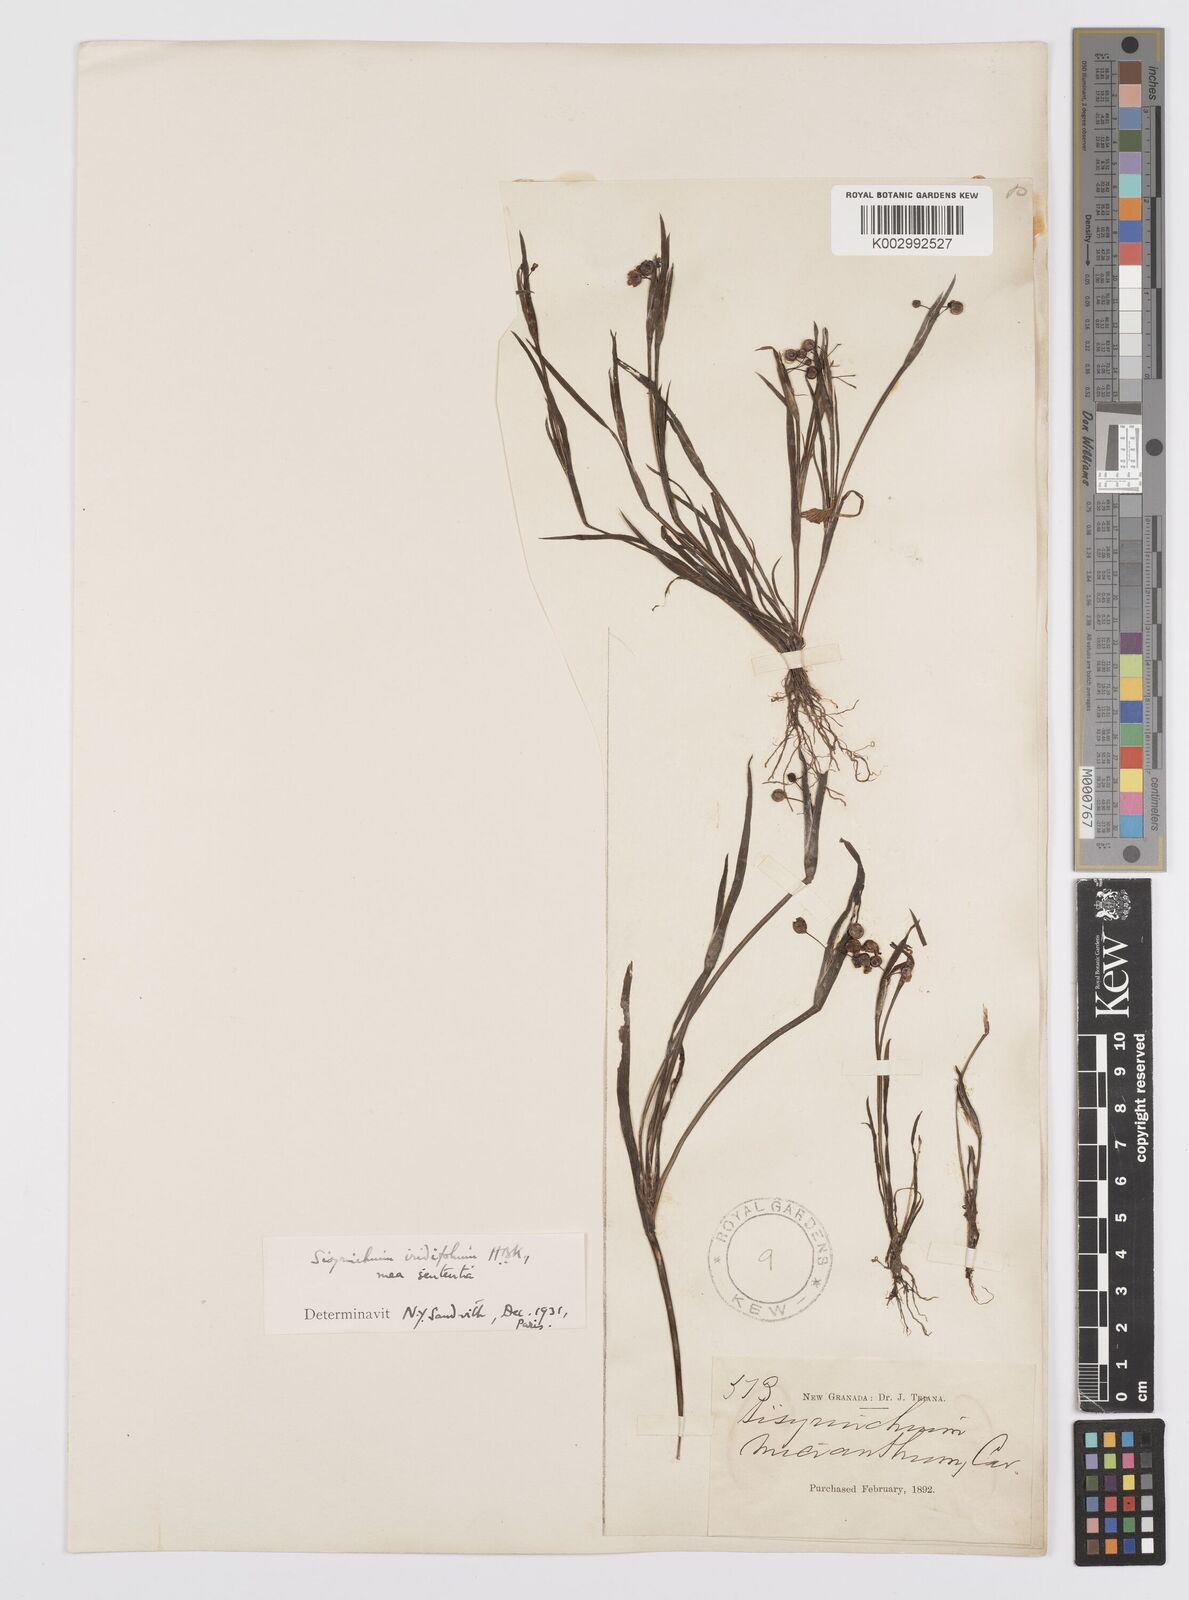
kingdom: Plantae
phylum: Tracheophyta
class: Liliopsida
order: Asparagales
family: Iridaceae
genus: Sisyrinchium
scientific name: Sisyrinchium micranthum
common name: Bermuda pigroot
